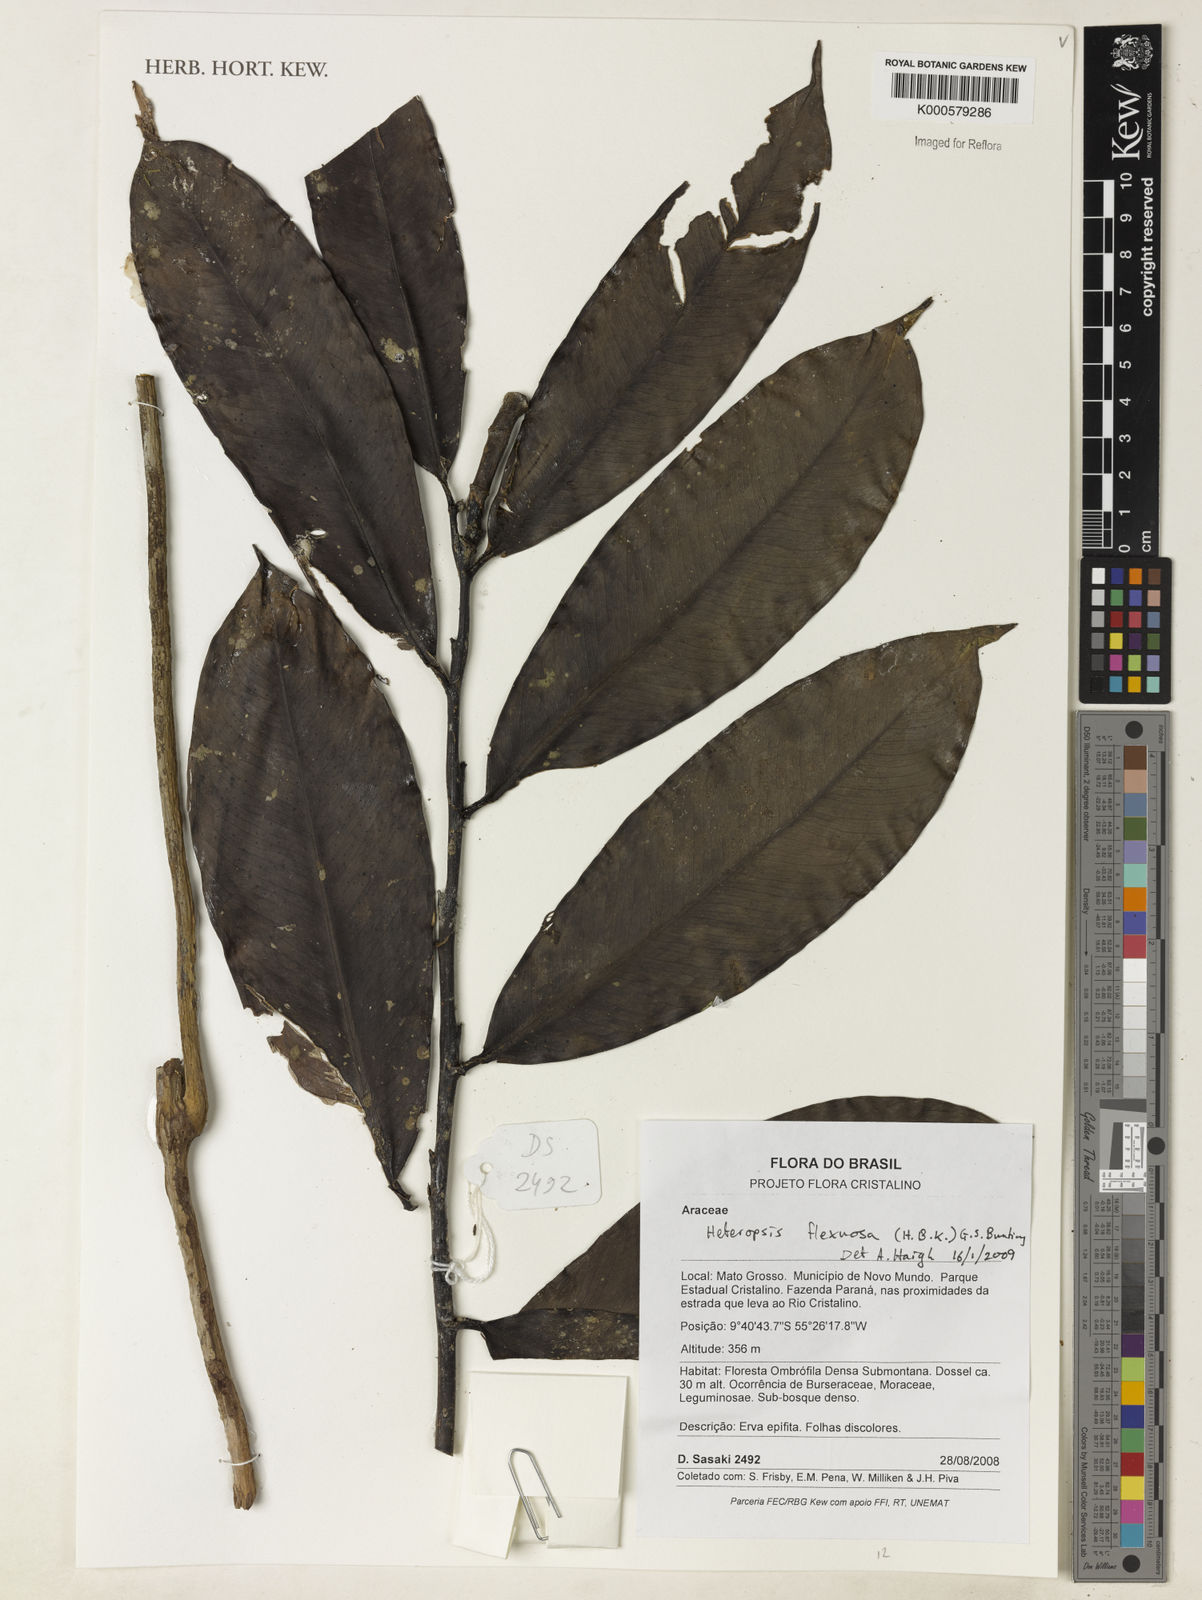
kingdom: Plantae
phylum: Tracheophyta
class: Liliopsida
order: Alismatales
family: Araceae
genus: Heteropsis
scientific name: Heteropsis flexuosa
